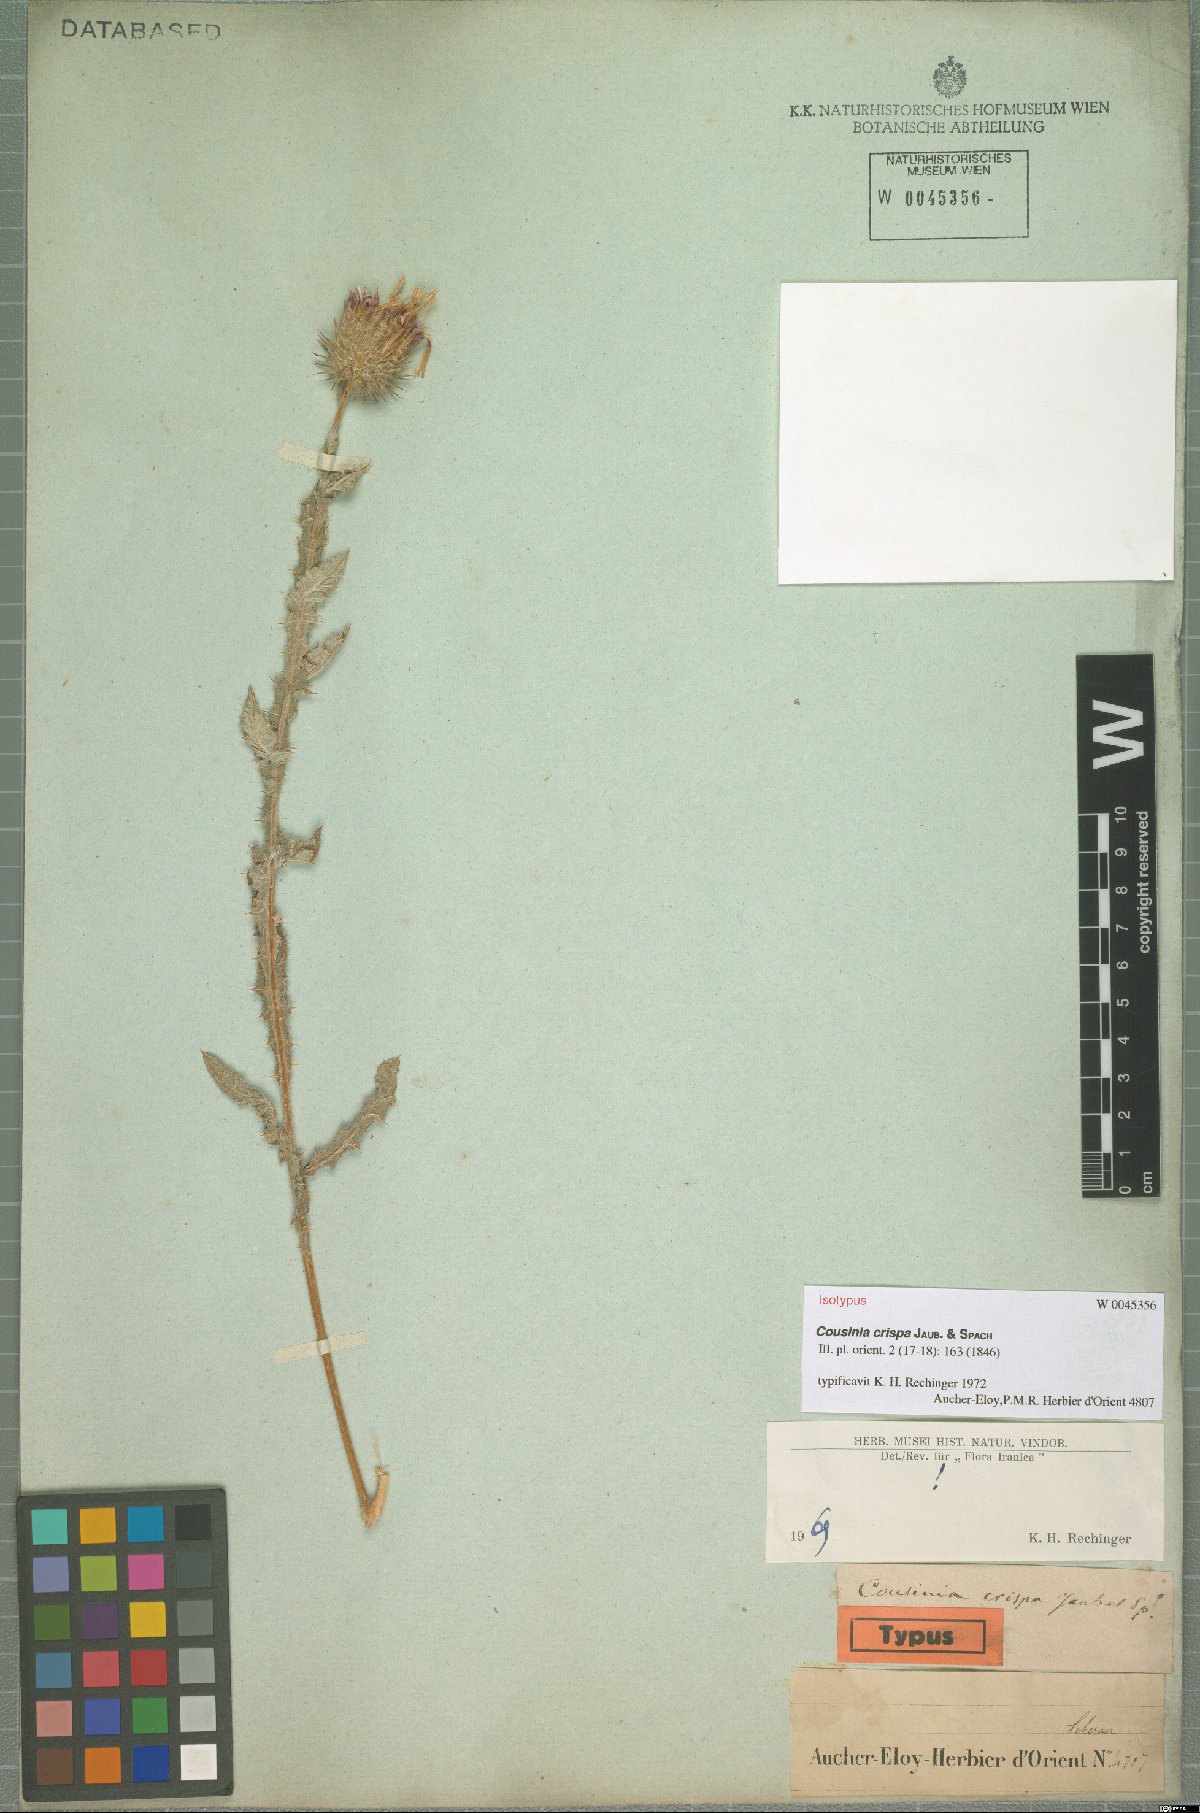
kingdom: Plantae
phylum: Tracheophyta
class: Magnoliopsida
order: Asterales
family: Asteraceae
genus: Cousinia
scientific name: Cousinia crispa
